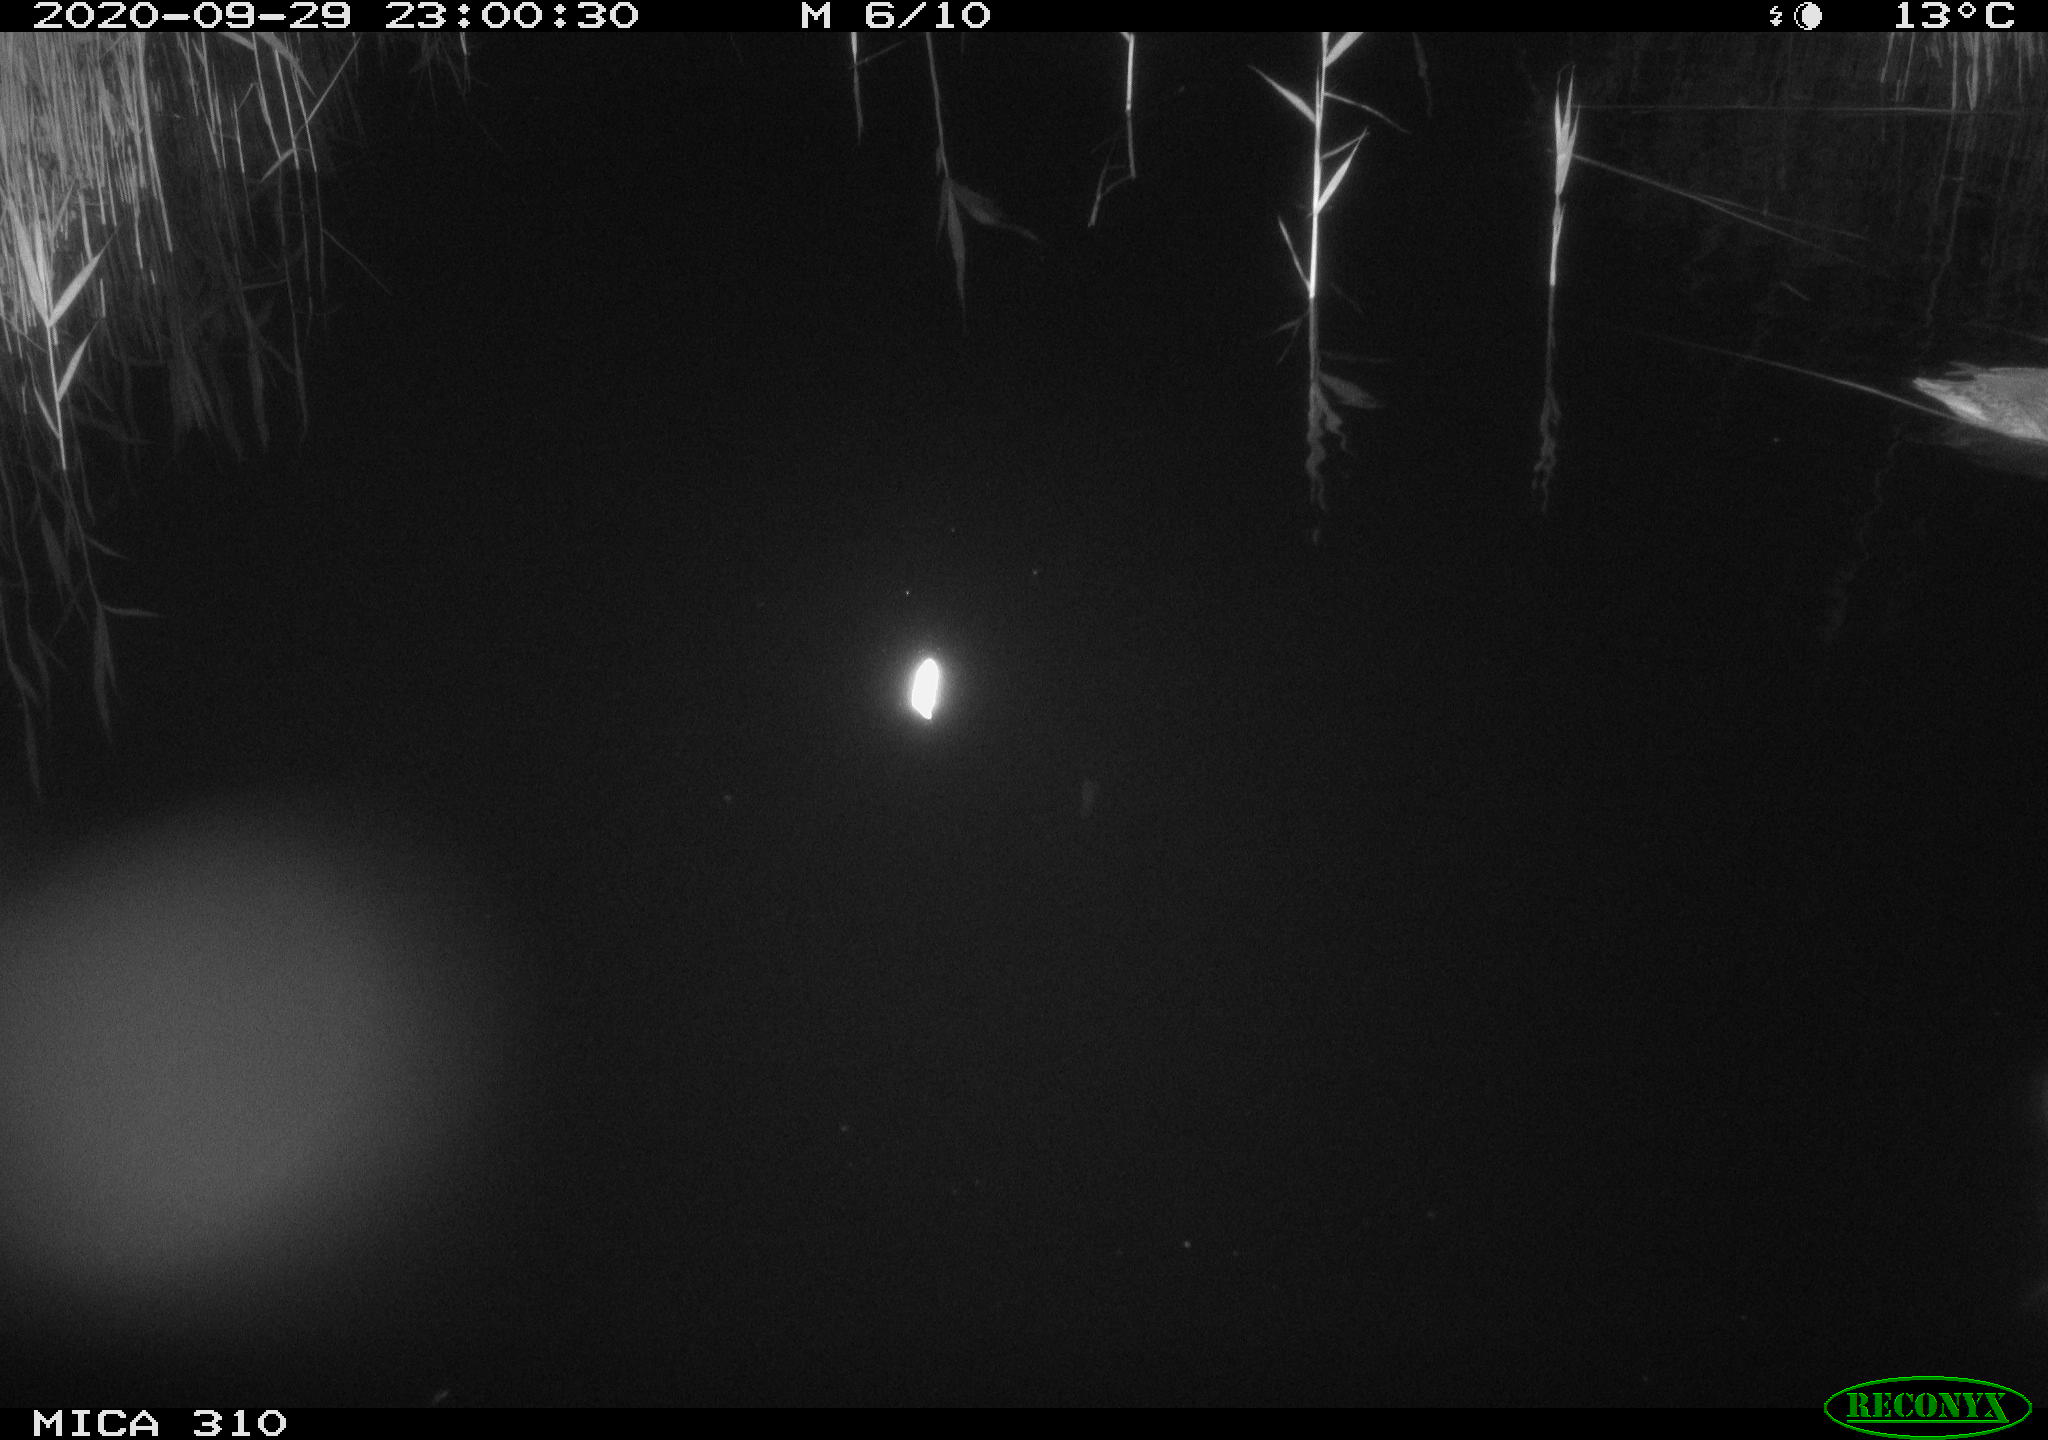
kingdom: Animalia
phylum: Chordata
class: Aves
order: Anseriformes
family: Anatidae
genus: Anas
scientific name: Anas platyrhynchos
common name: Mallard
